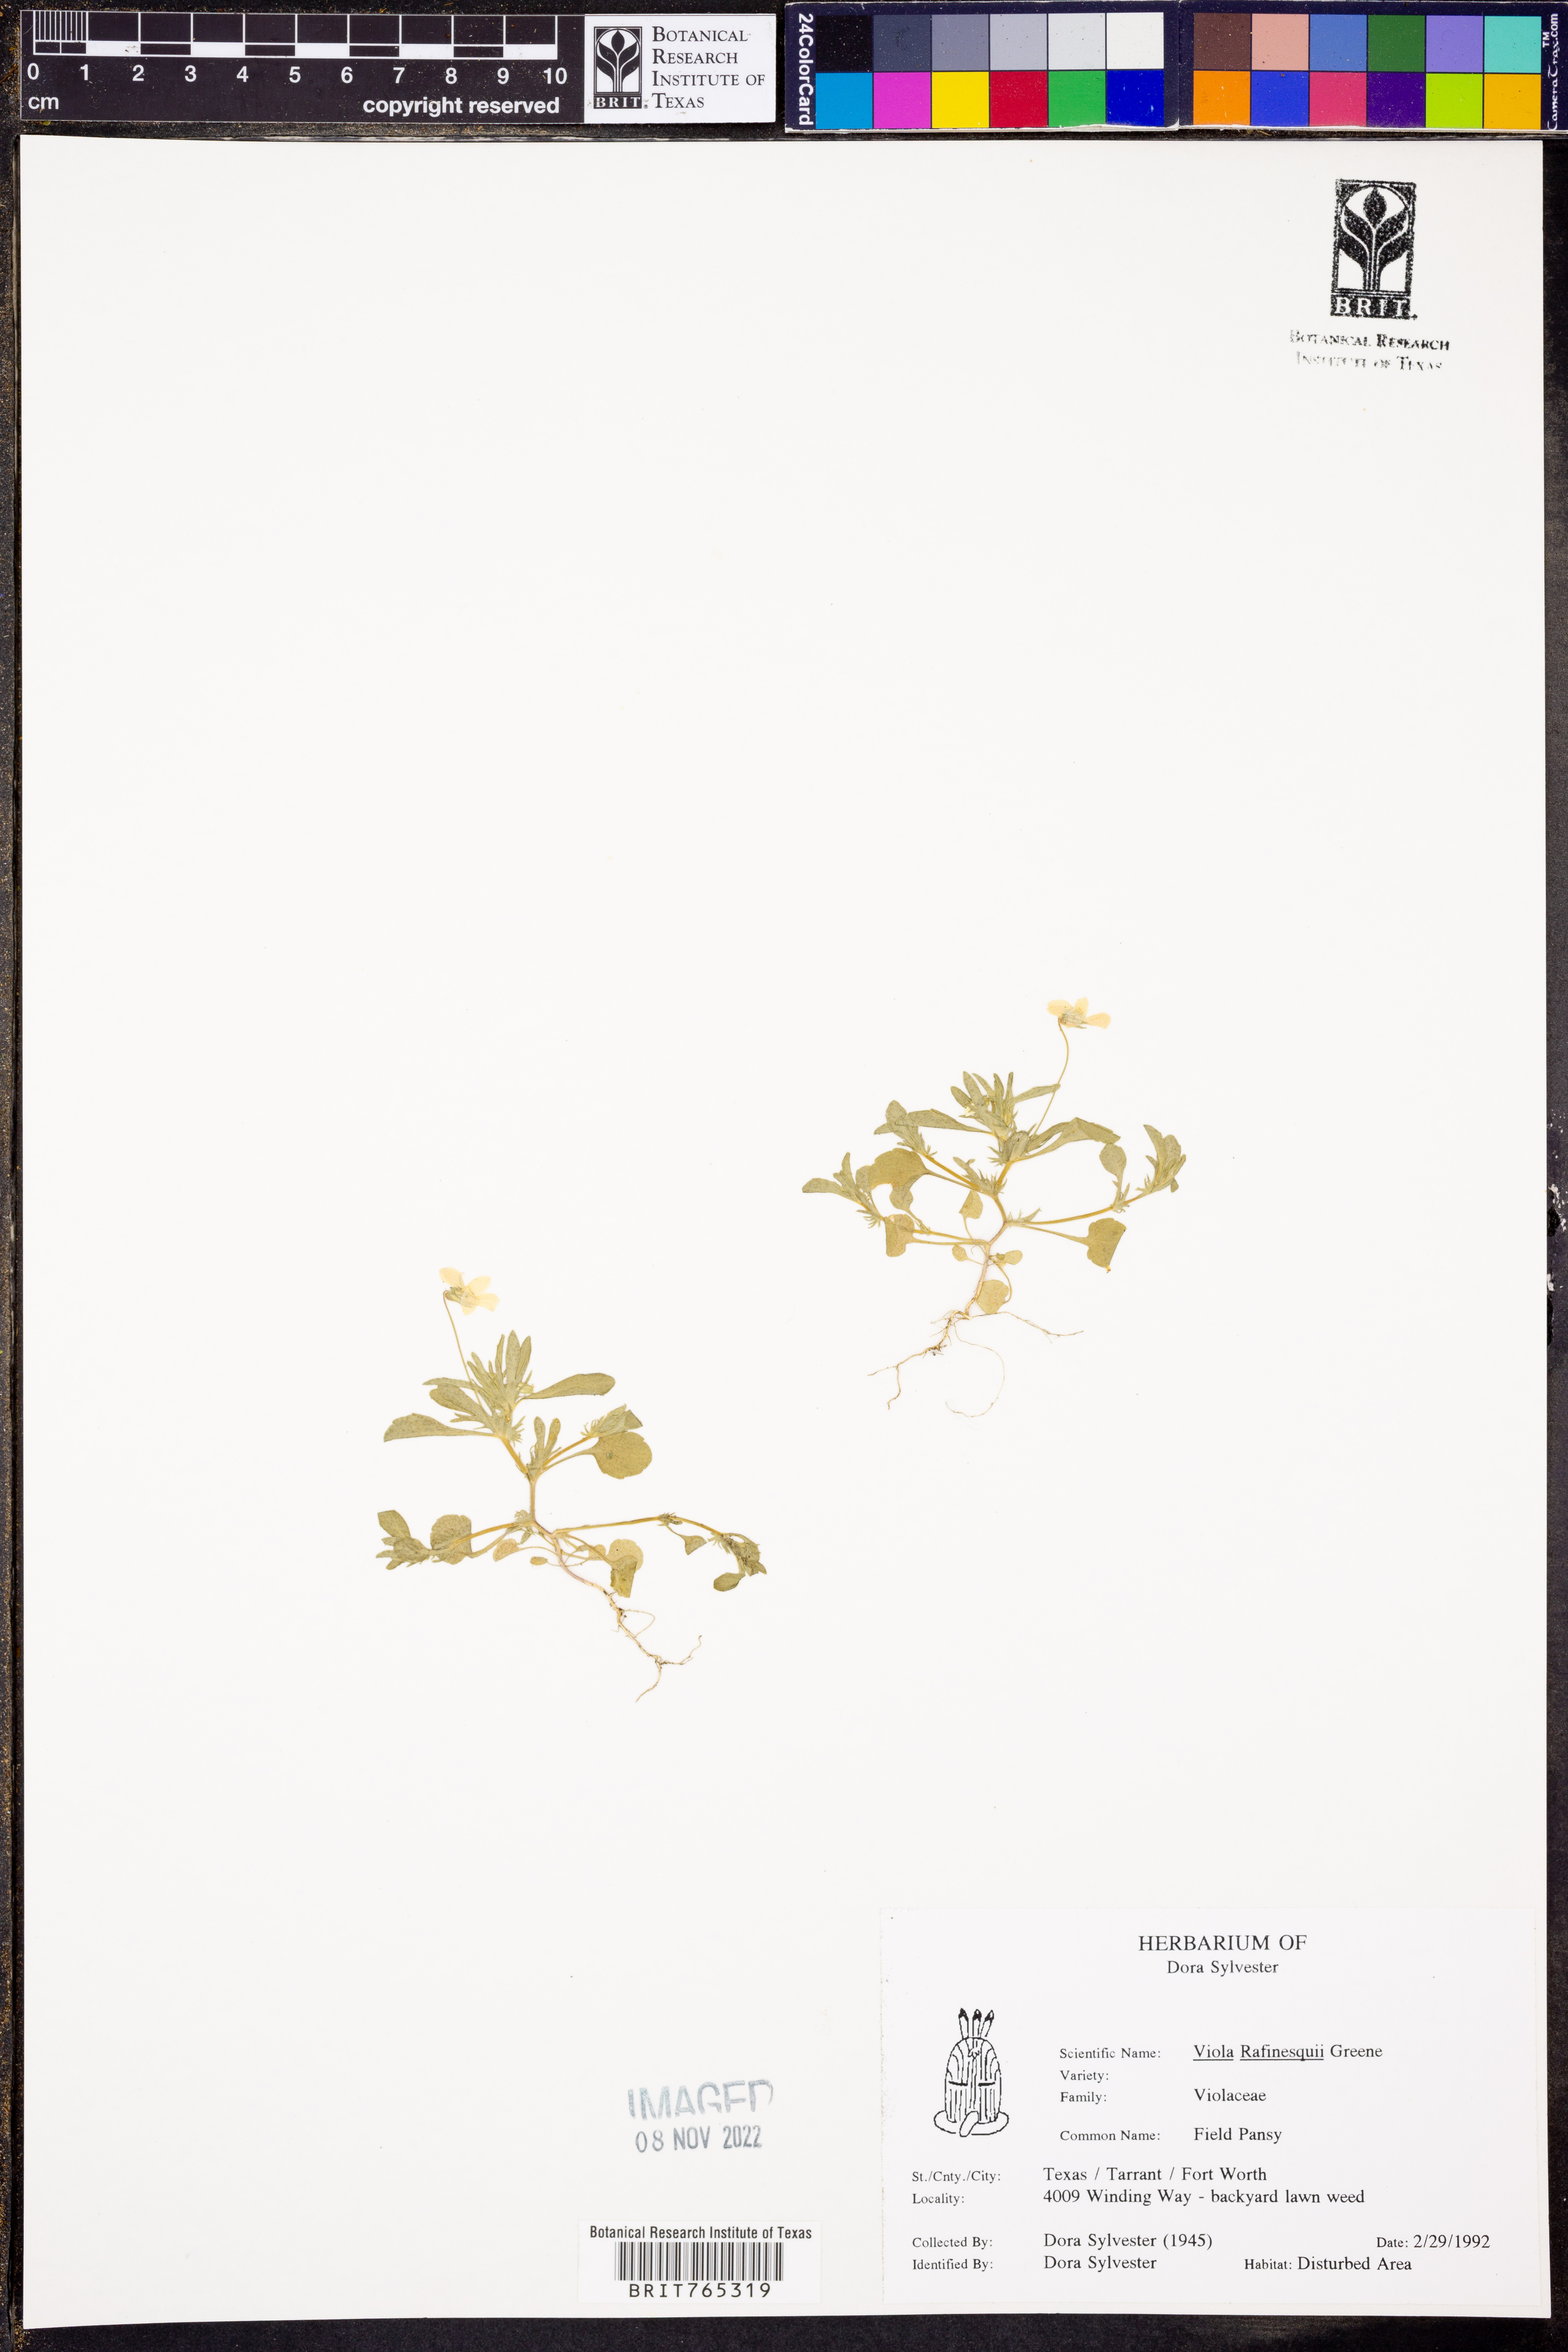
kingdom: Plantae
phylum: Tracheophyta
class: Magnoliopsida
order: Malpighiales
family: Violaceae
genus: Viola
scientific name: Viola rafinesquei
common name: American field pansy
